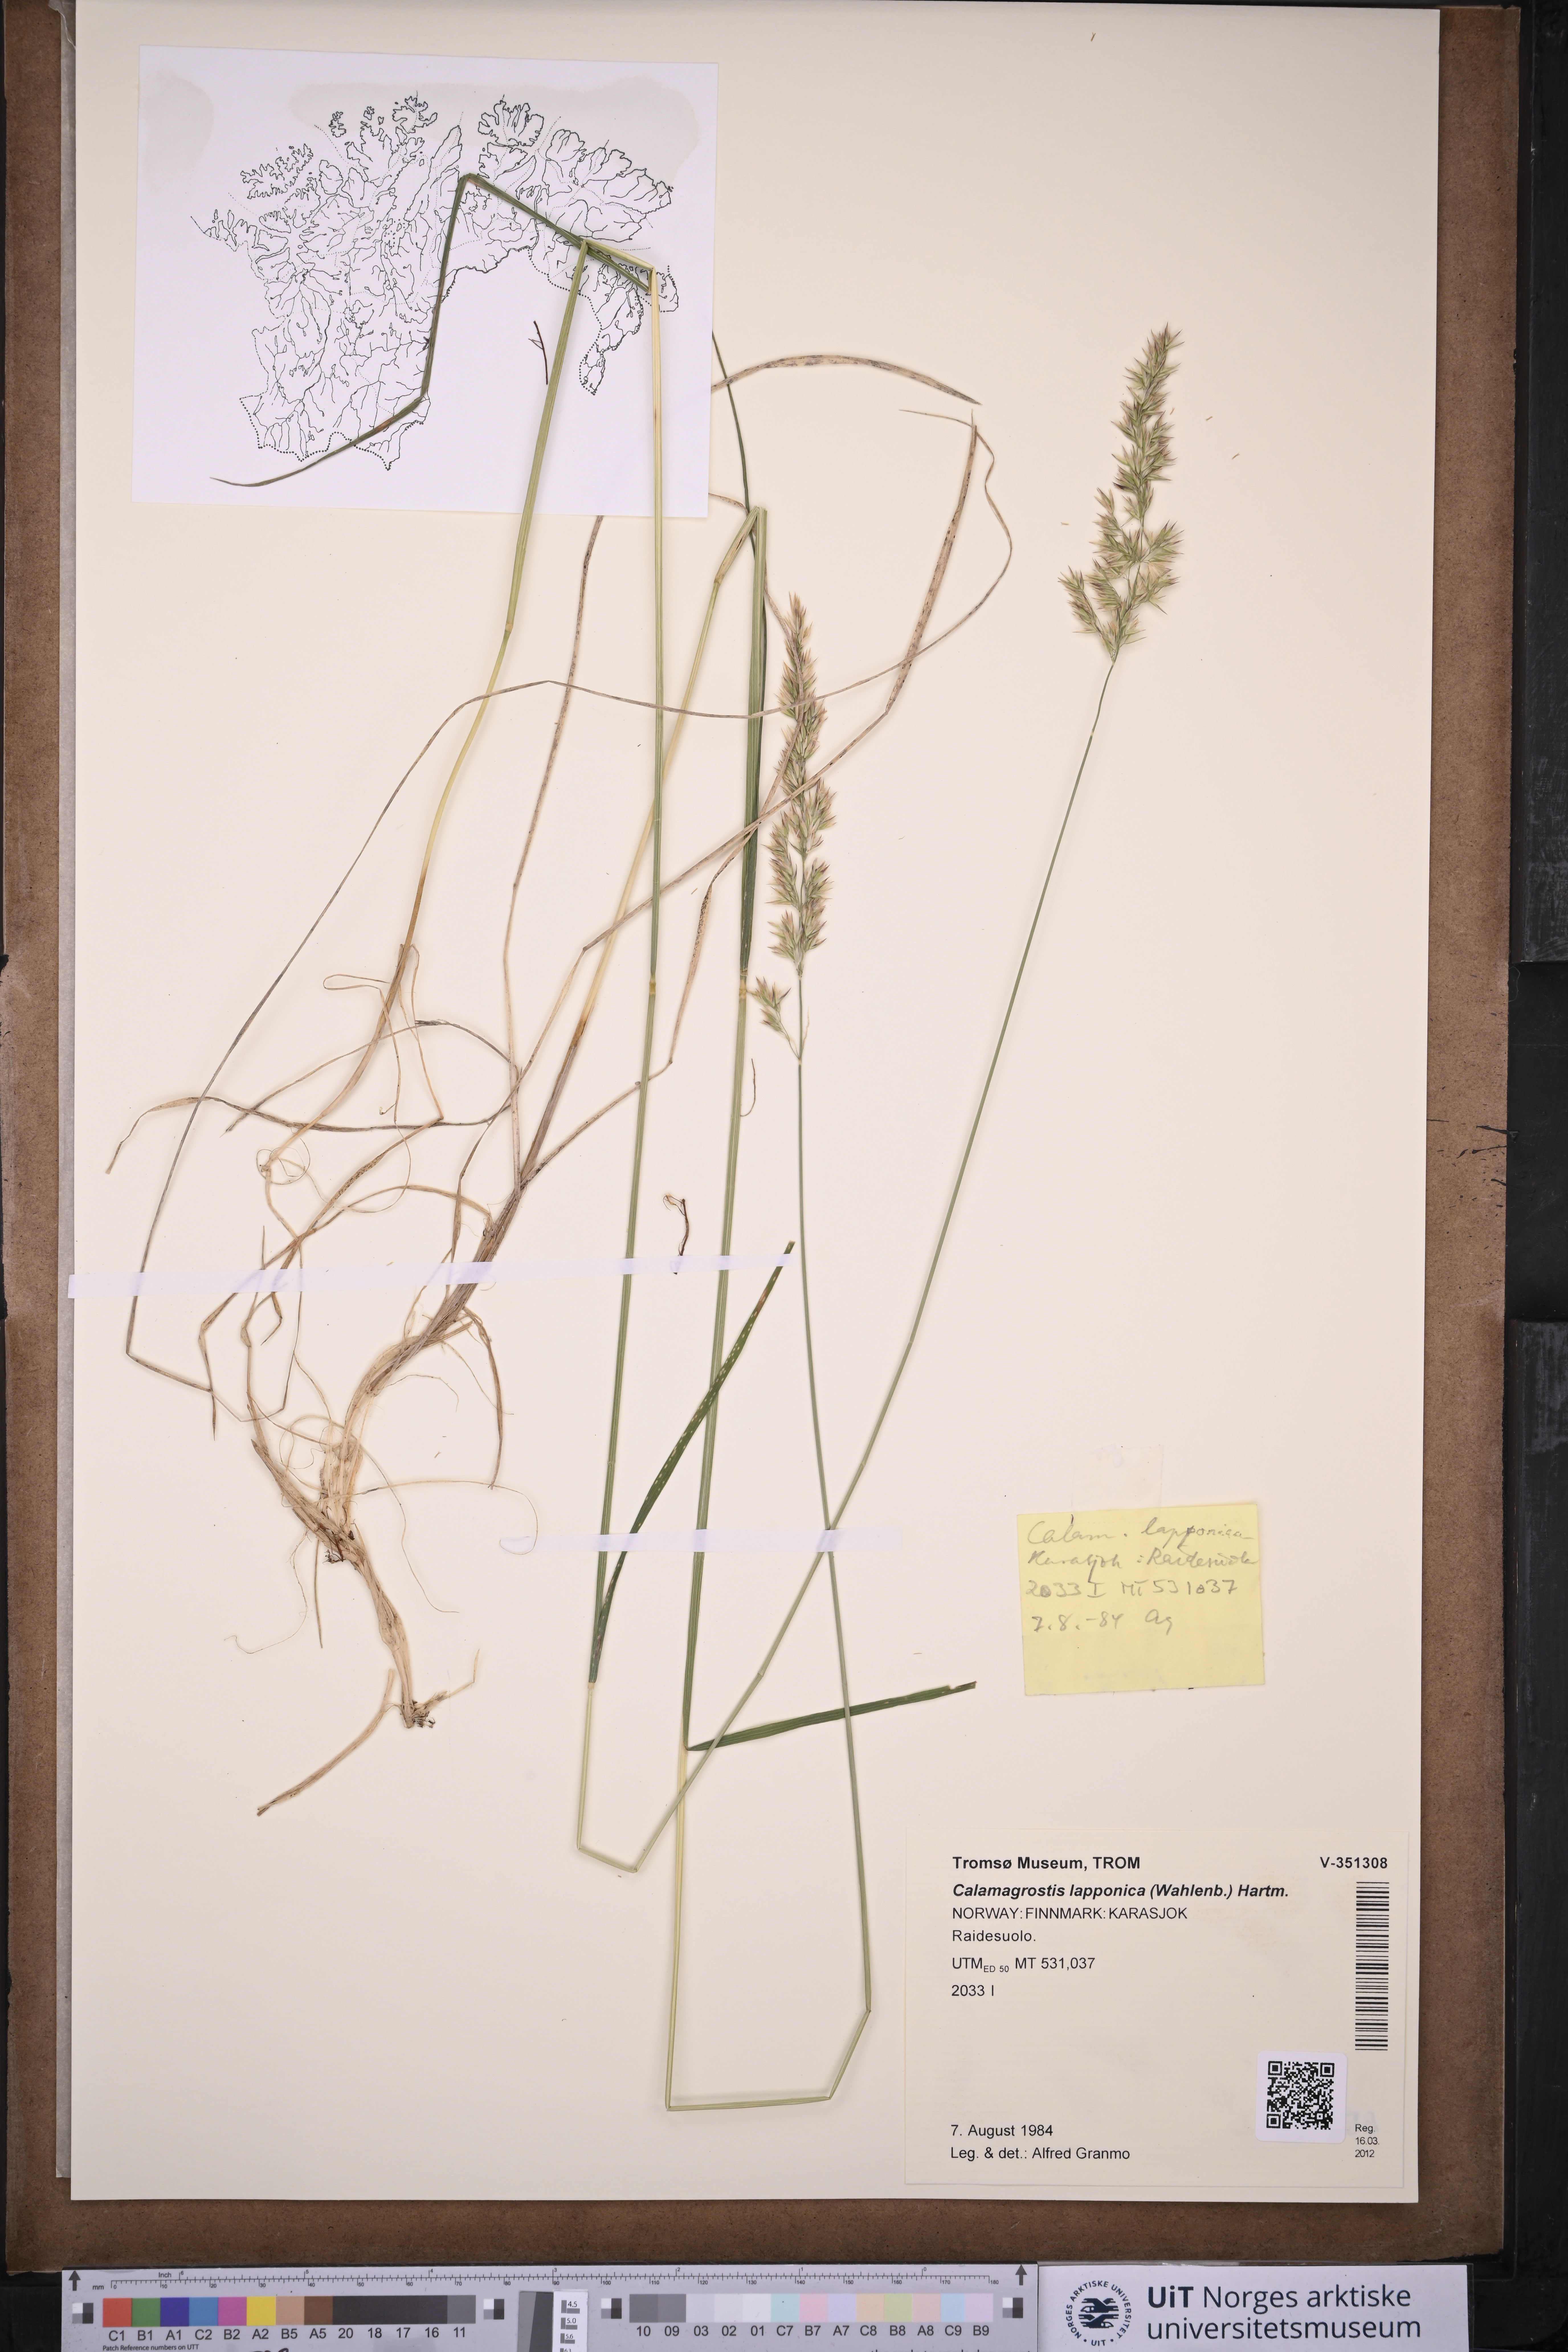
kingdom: Plantae
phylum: Tracheophyta
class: Liliopsida
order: Poales
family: Poaceae
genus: Calamagrostis
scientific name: Calamagrostis lapponica
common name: Lapland reedgrass
